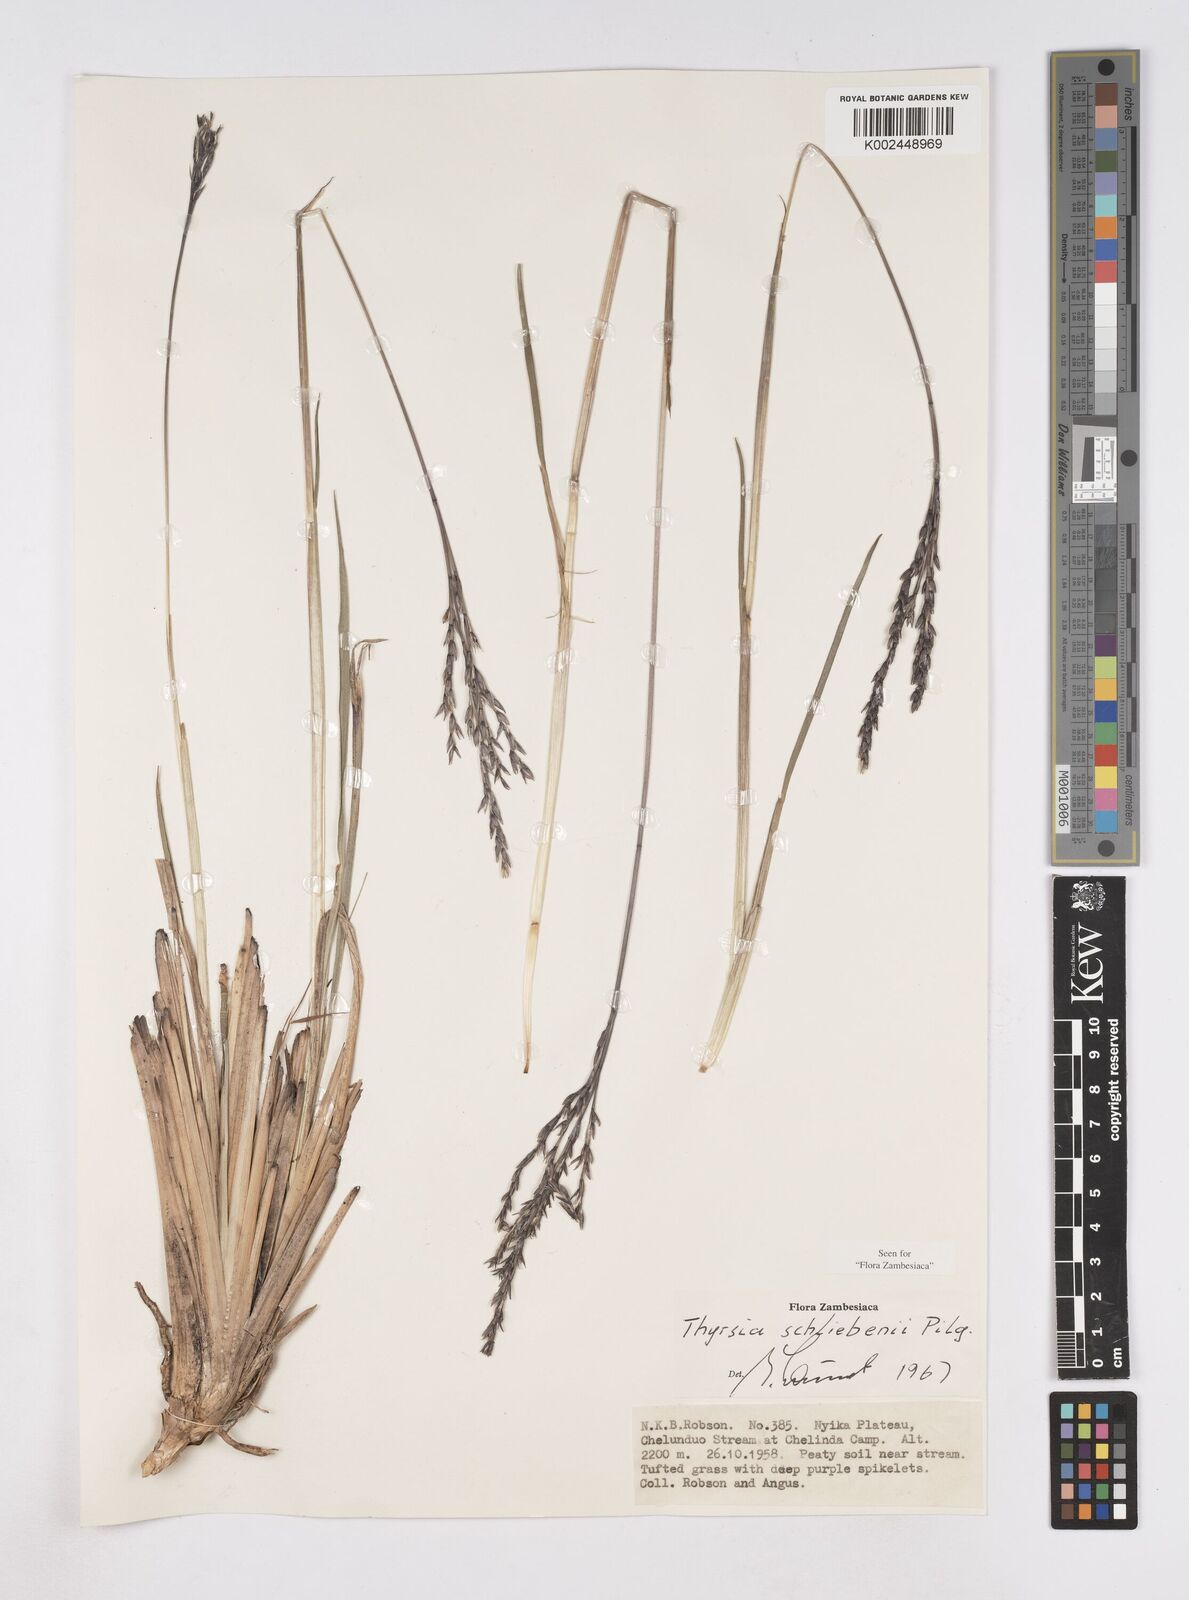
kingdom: Plantae
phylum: Tracheophyta
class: Liliopsida
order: Poales
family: Poaceae
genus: Thyrsia
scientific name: Thyrsia schliebenii
